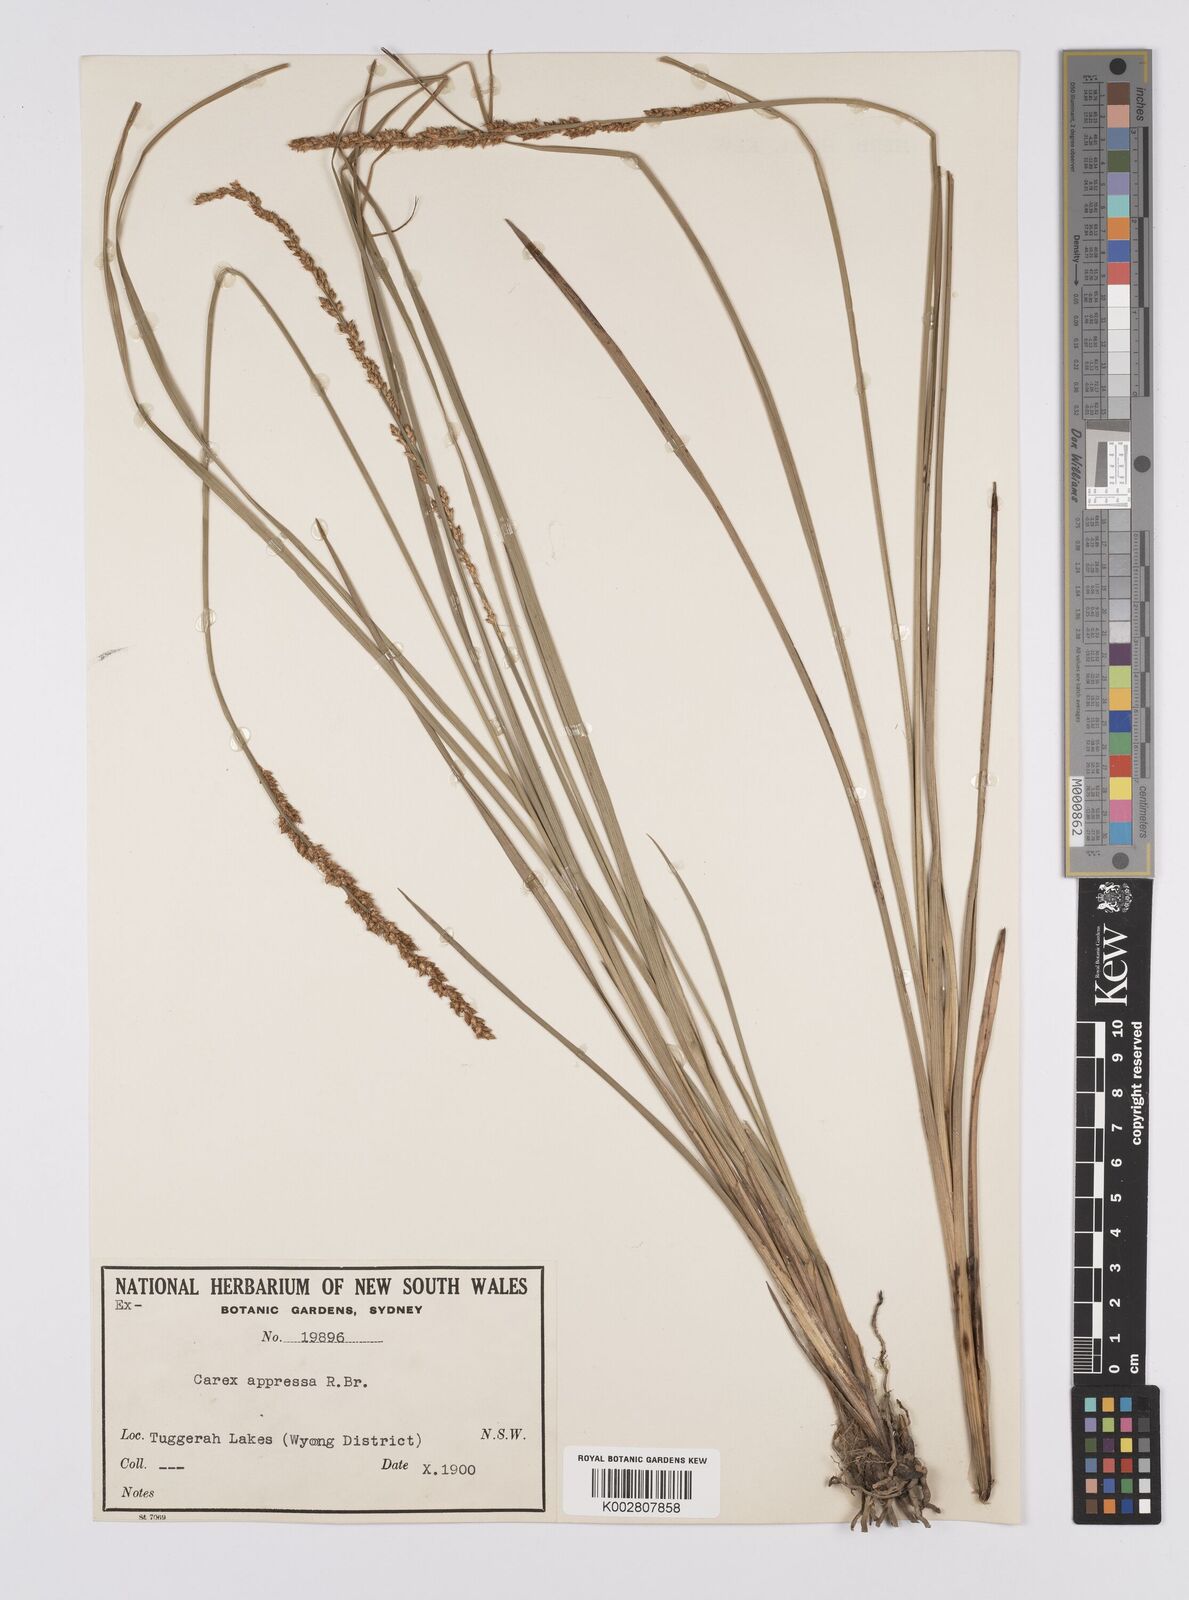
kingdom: Plantae
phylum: Tracheophyta
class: Liliopsida
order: Poales
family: Cyperaceae
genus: Carex
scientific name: Carex appressa
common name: Tussock sedge
